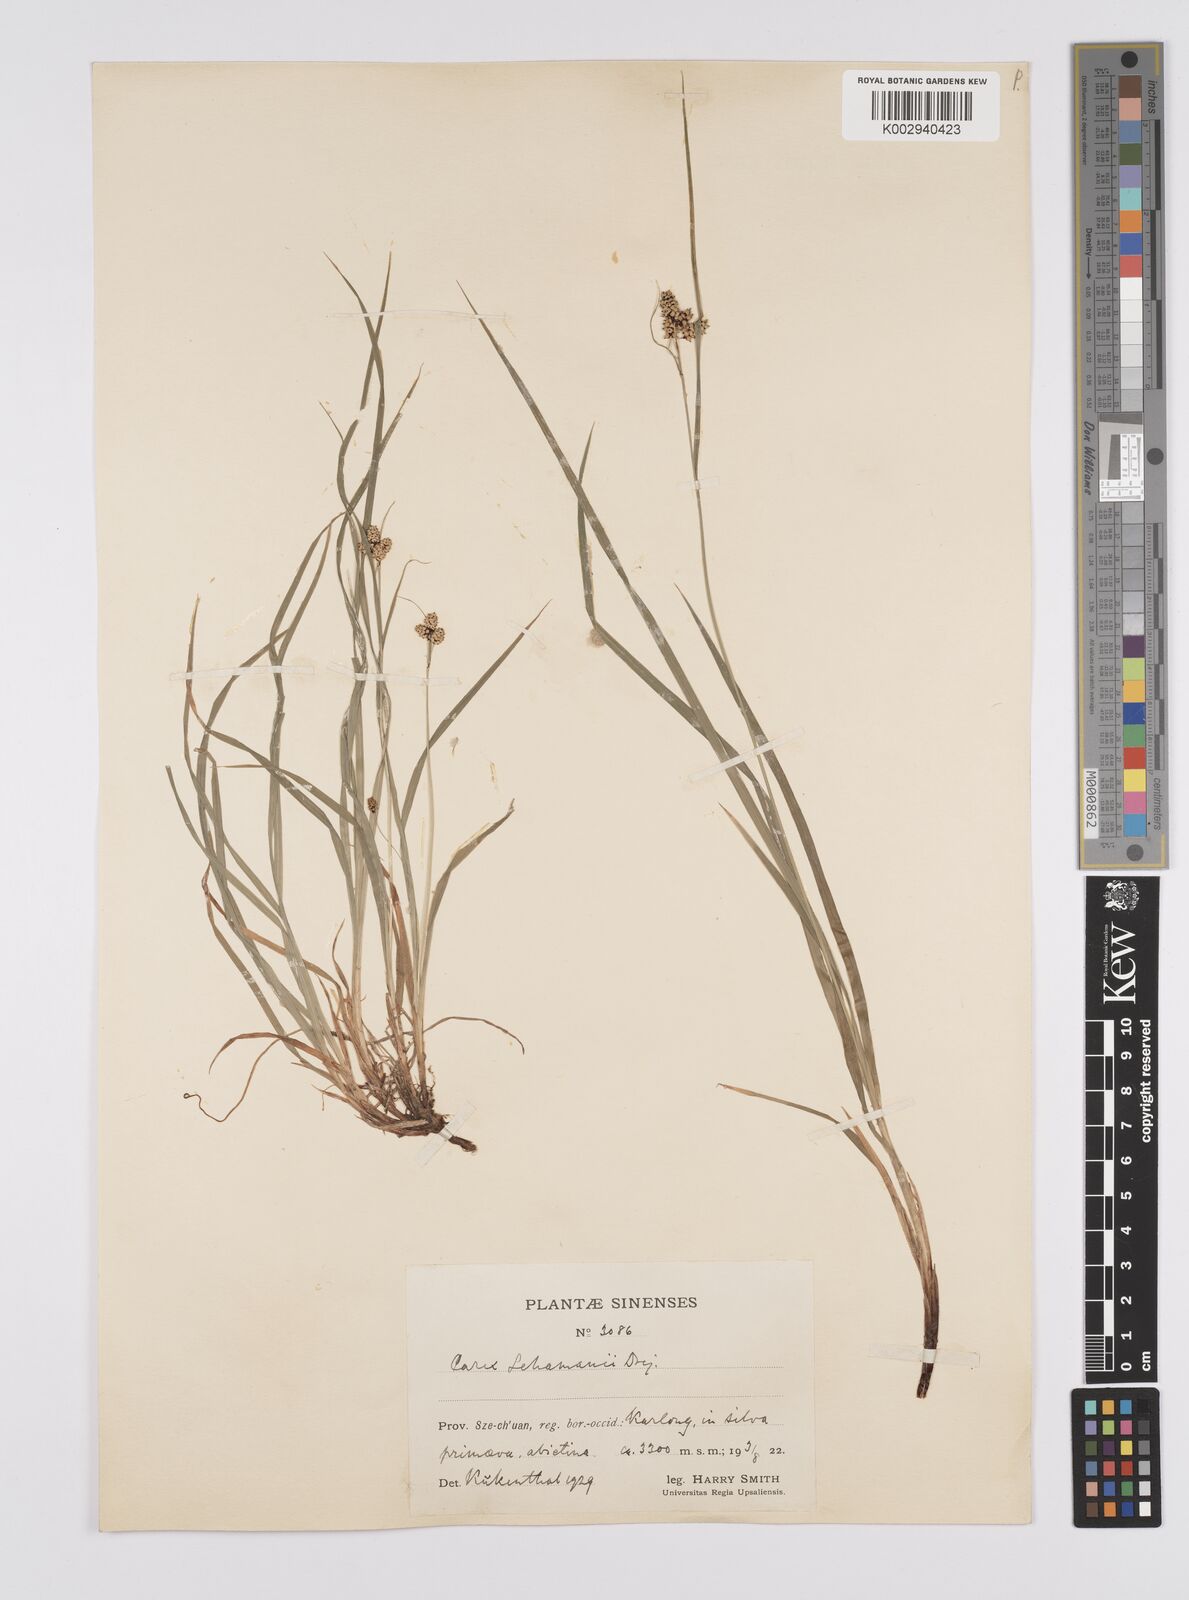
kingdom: Plantae
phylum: Tracheophyta
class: Liliopsida
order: Poales
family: Cyperaceae
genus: Carex
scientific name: Carex lehmannii
